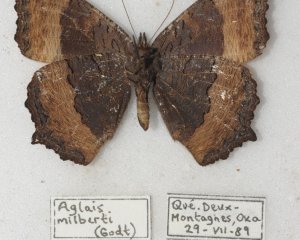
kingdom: Animalia
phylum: Arthropoda
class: Insecta
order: Lepidoptera
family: Nymphalidae
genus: Aglais
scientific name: Aglais milberti
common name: Milbert's Tortoiseshell
